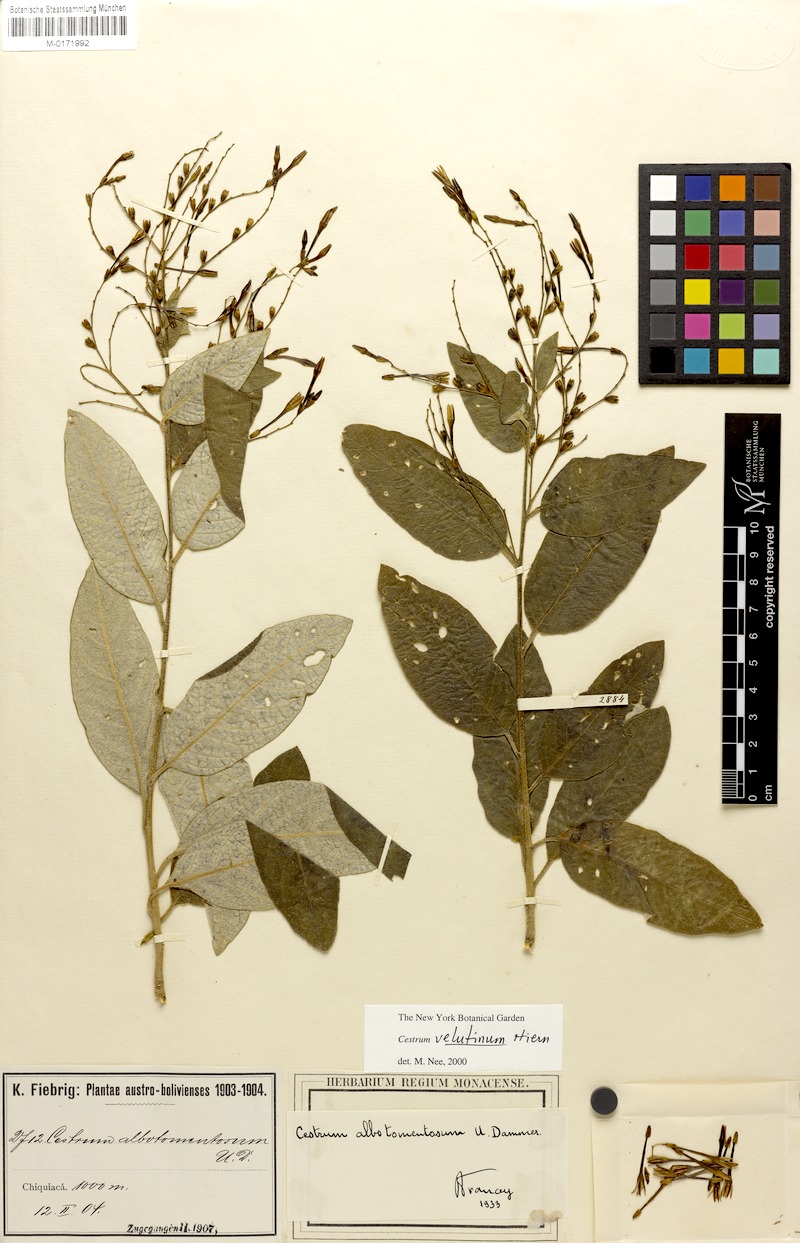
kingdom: Plantae
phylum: Tracheophyta
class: Magnoliopsida
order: Solanales
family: Solanaceae
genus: Cestrum
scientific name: Cestrum velutinum
